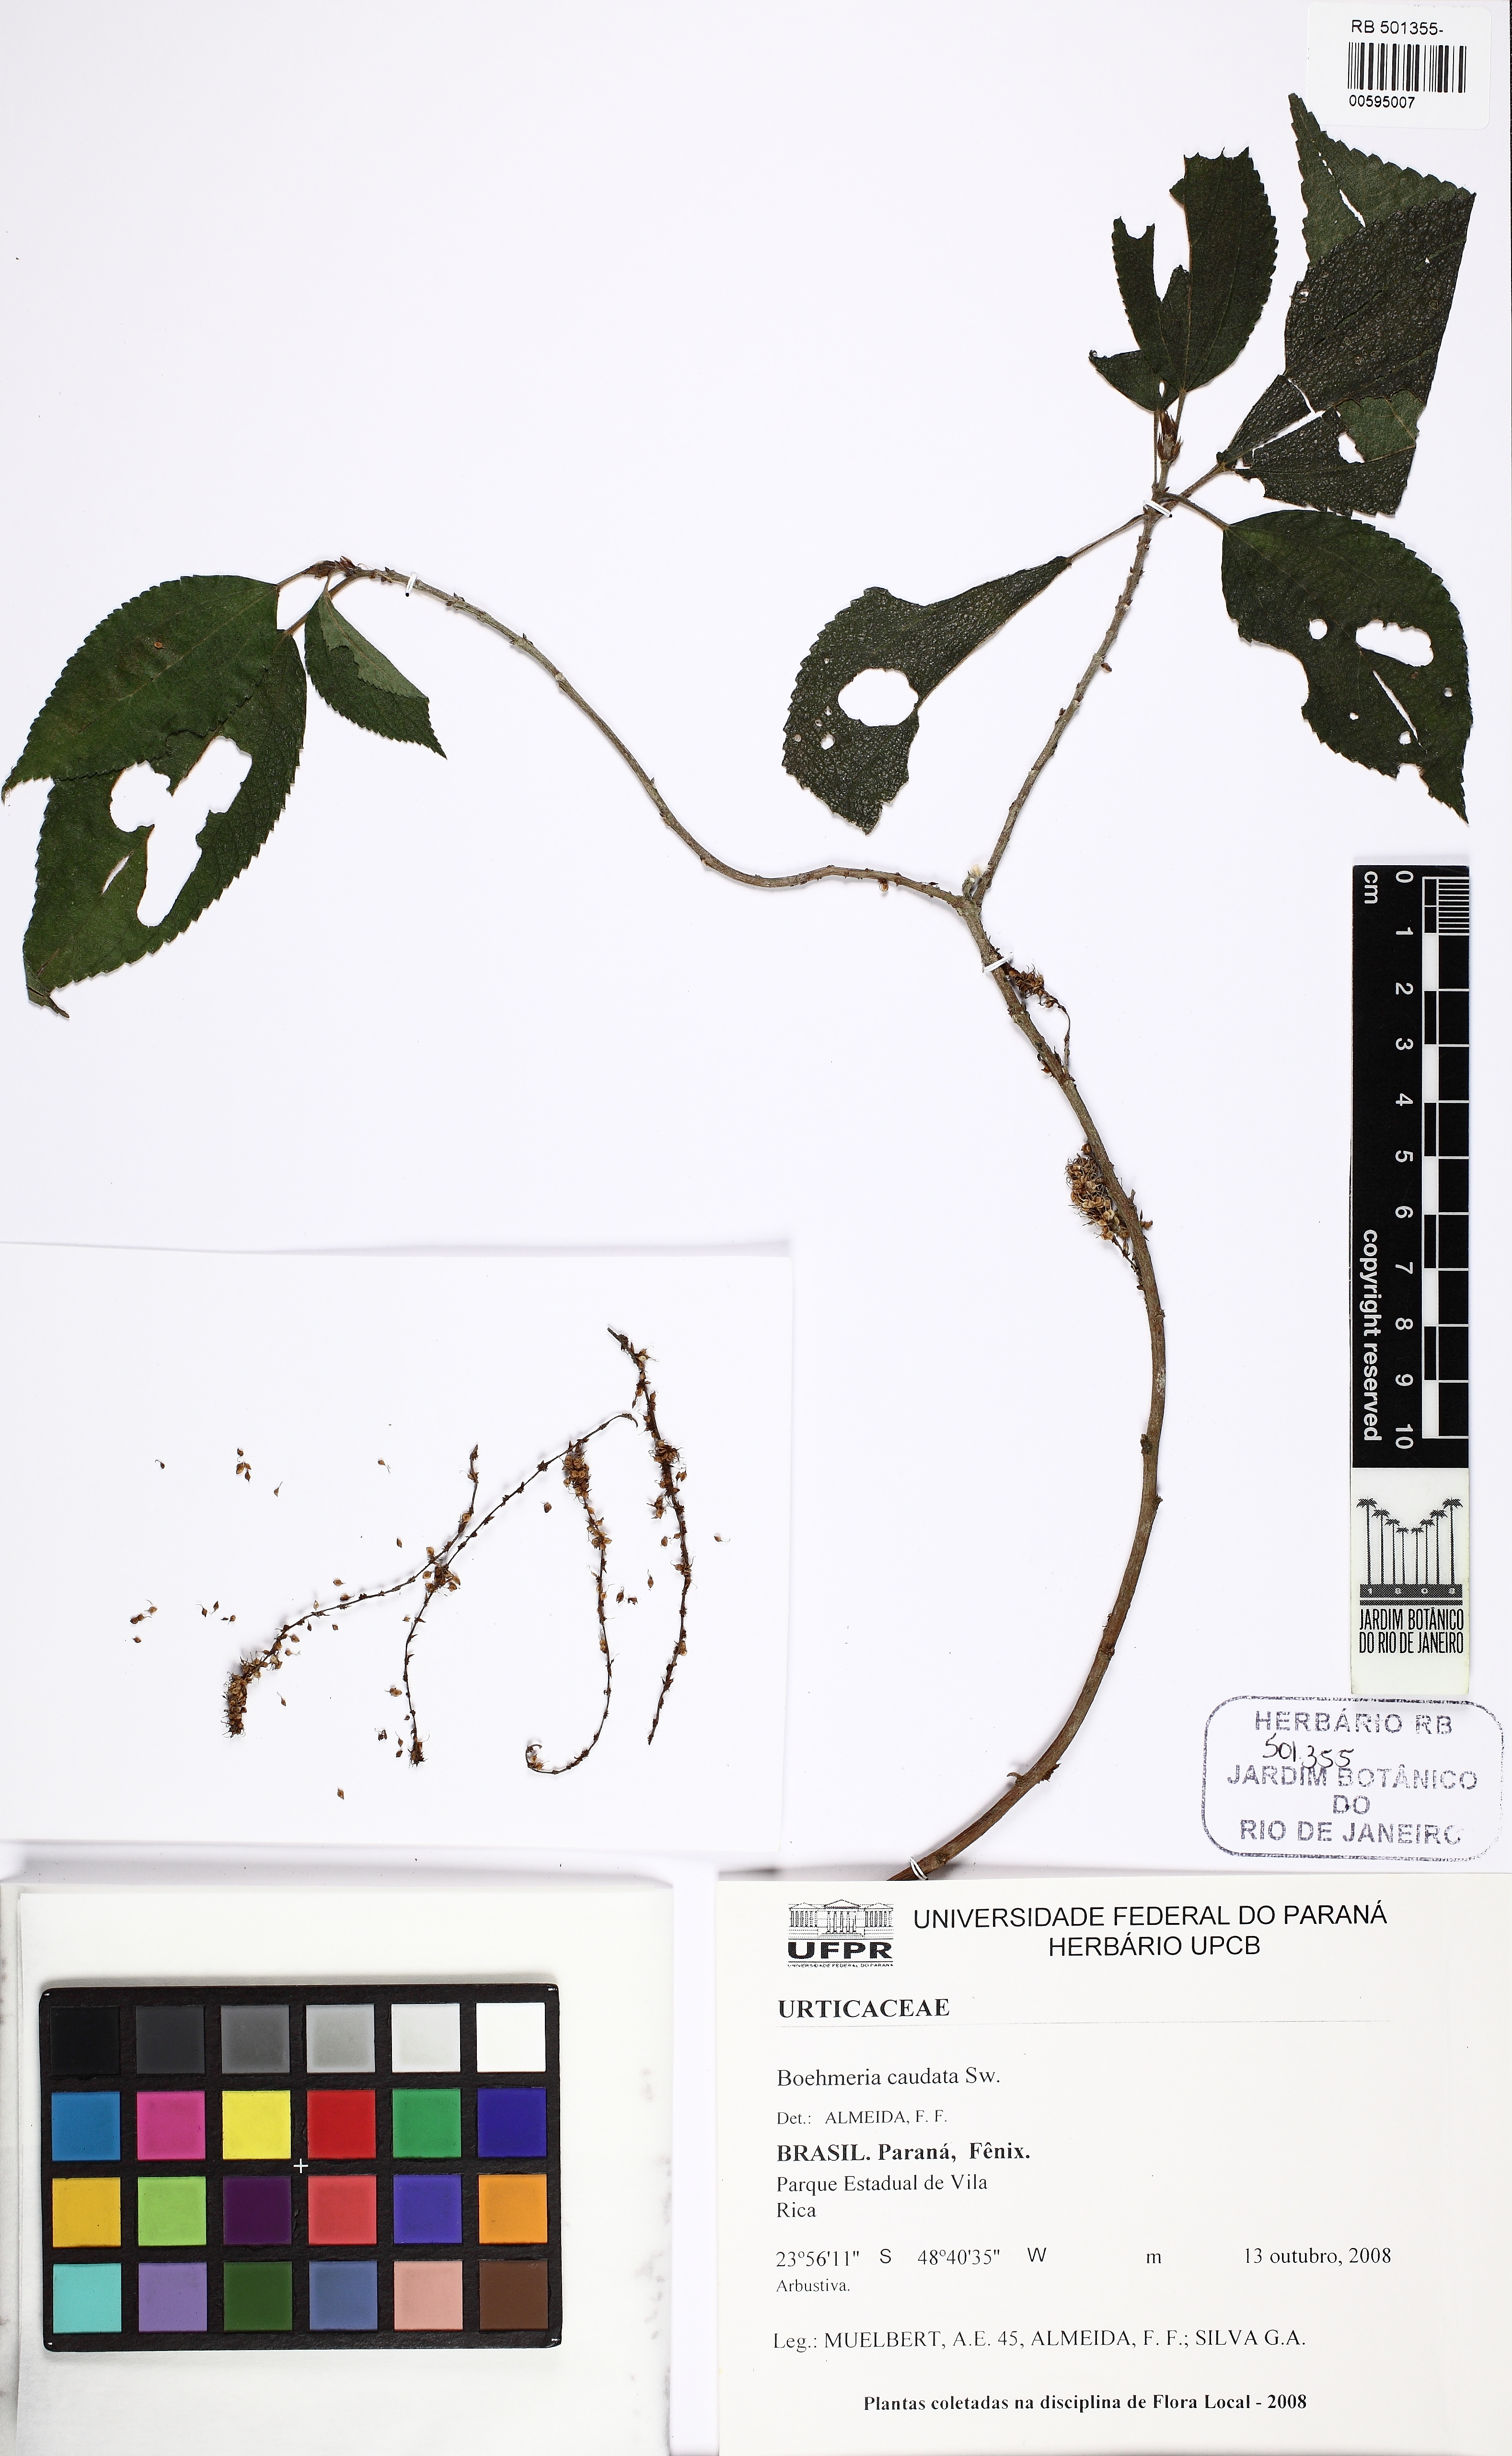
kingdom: Plantae
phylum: Tracheophyta
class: Magnoliopsida
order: Rosales
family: Urticaceae
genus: Boehmeria
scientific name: Boehmeria caudata
